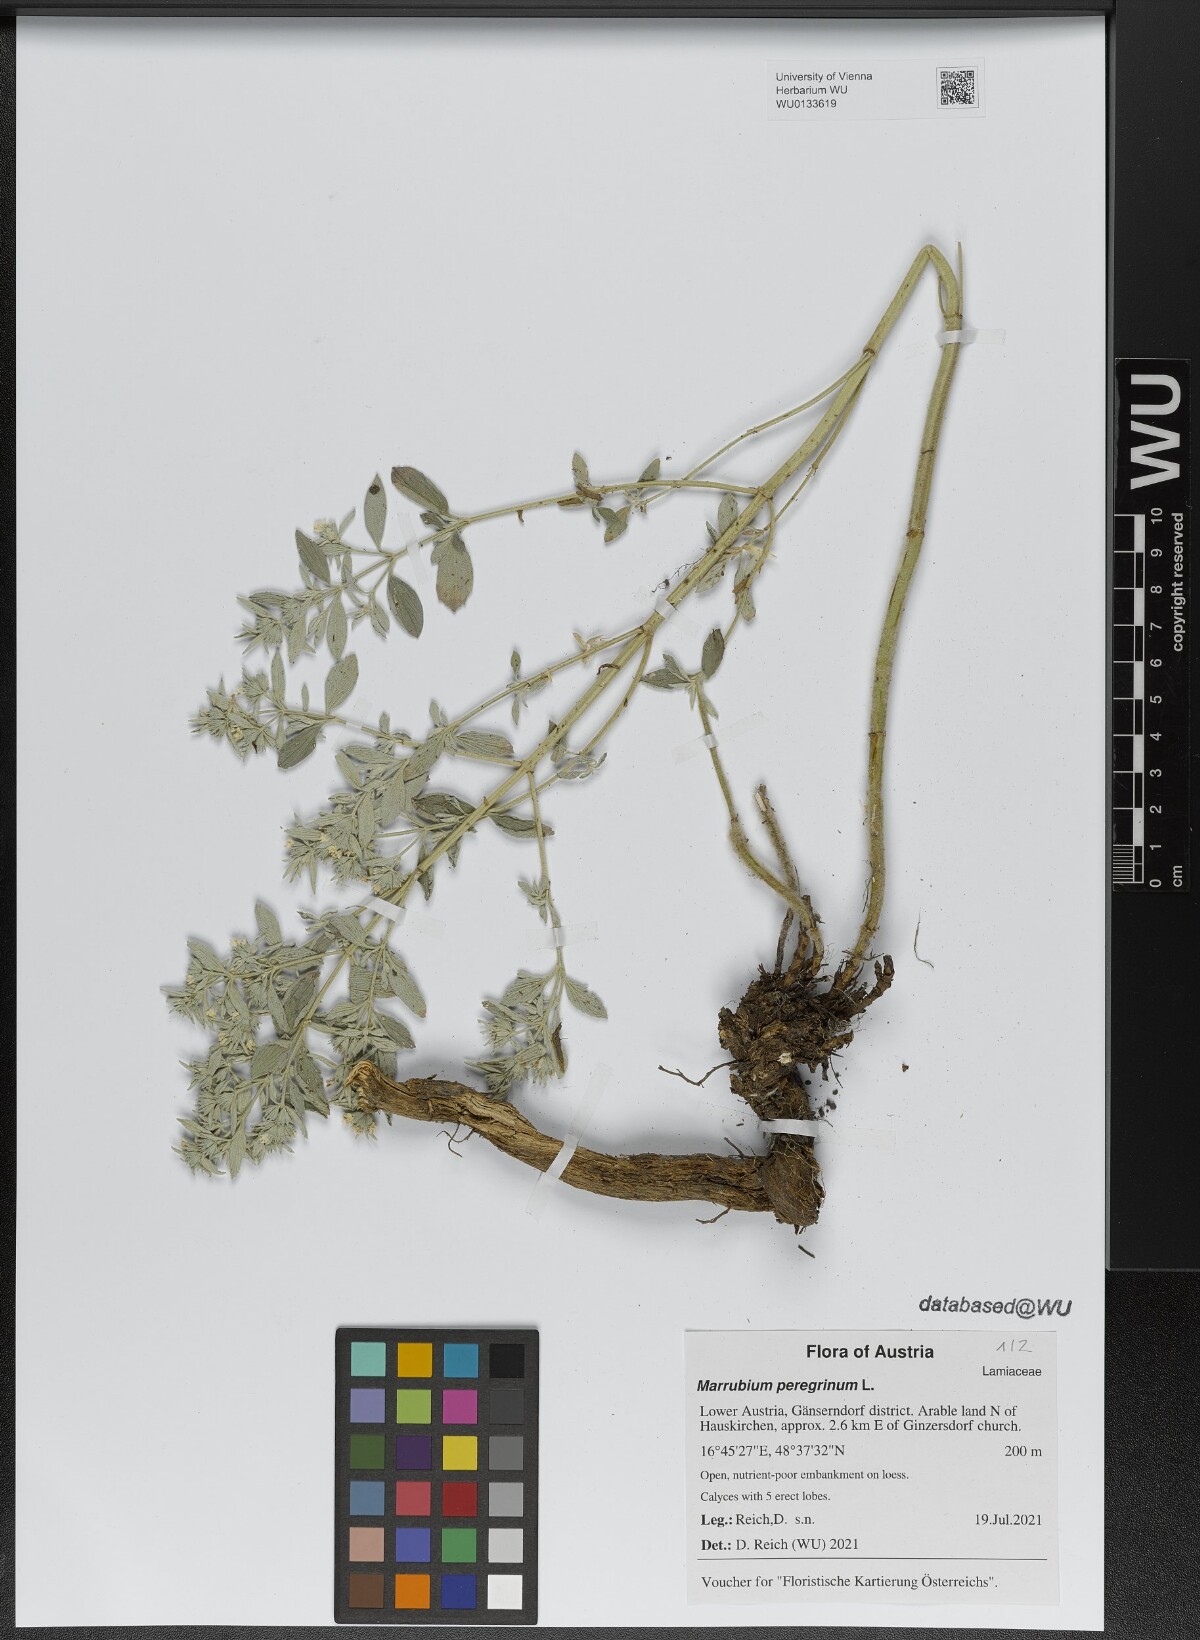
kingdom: Plantae
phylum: Tracheophyta
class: Magnoliopsida
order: Lamiales
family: Lamiaceae
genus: Marrubium
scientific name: Marrubium peregrinum
